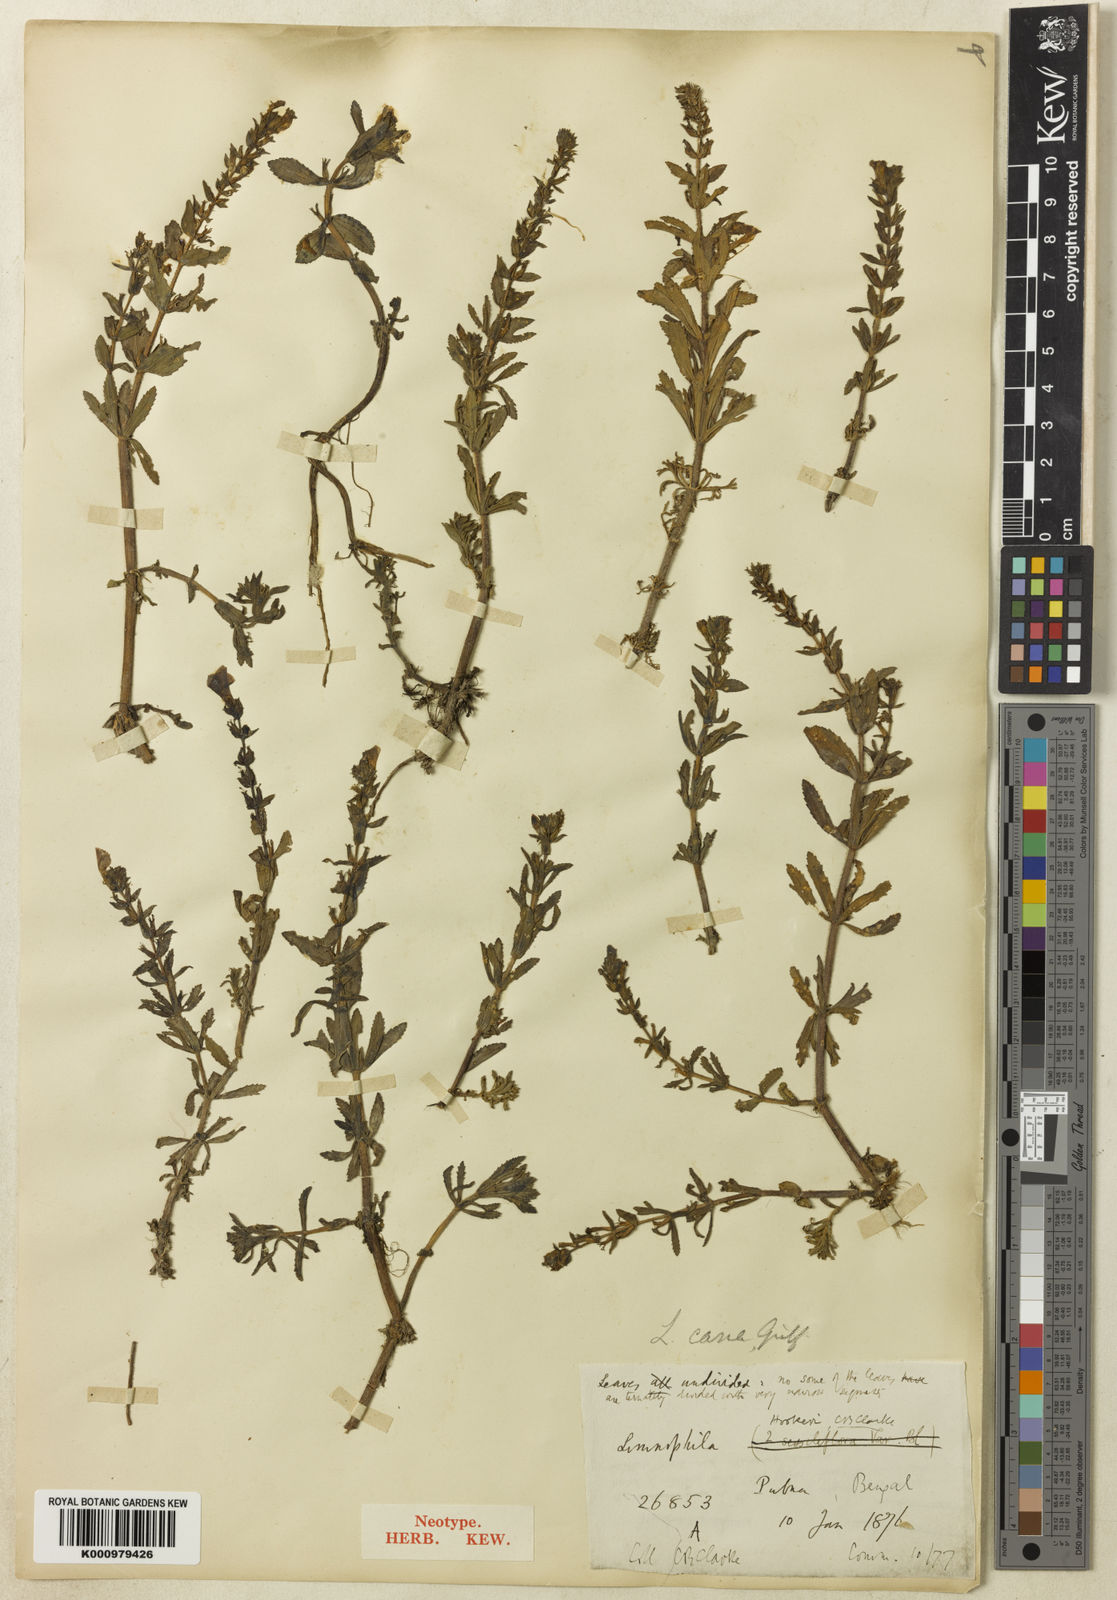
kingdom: Plantae
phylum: Tracheophyta
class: Magnoliopsida
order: Lamiales
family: Plantaginaceae
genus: Limnophila
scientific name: Limnophila cana
